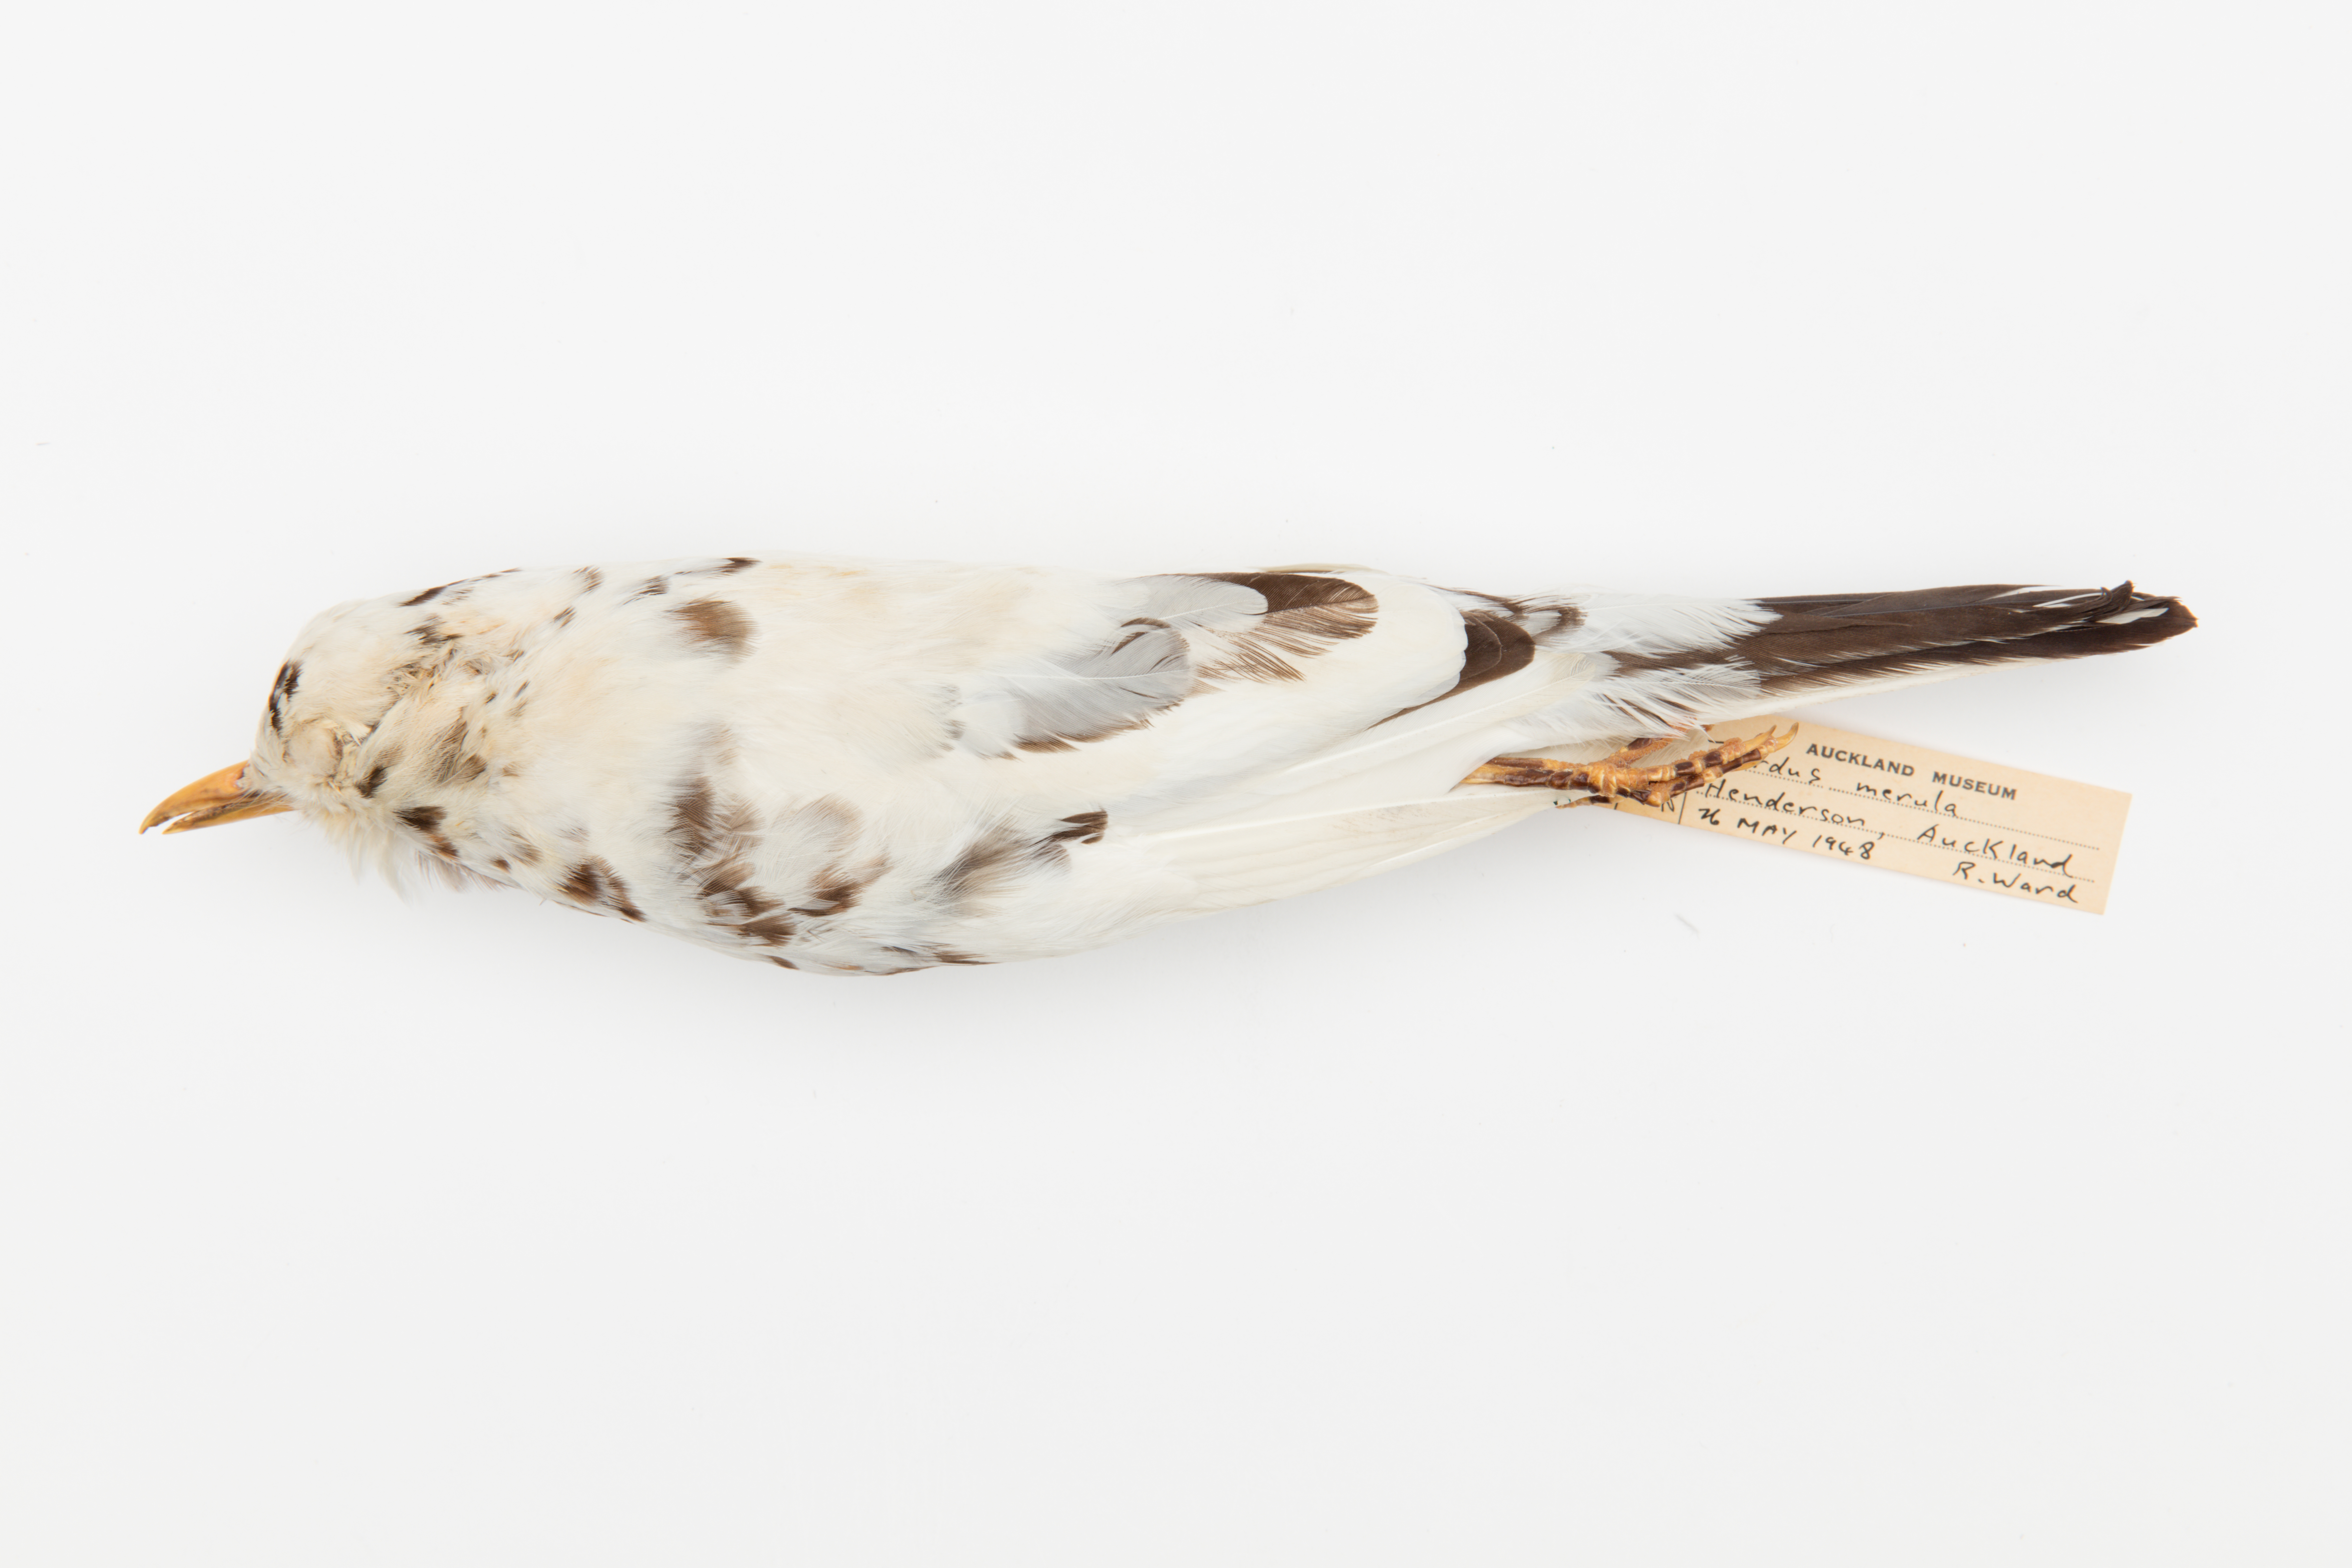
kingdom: Animalia
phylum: Chordata
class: Aves
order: Passeriformes
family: Turdidae
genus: Turdus
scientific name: Turdus merula
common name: Common blackbird
